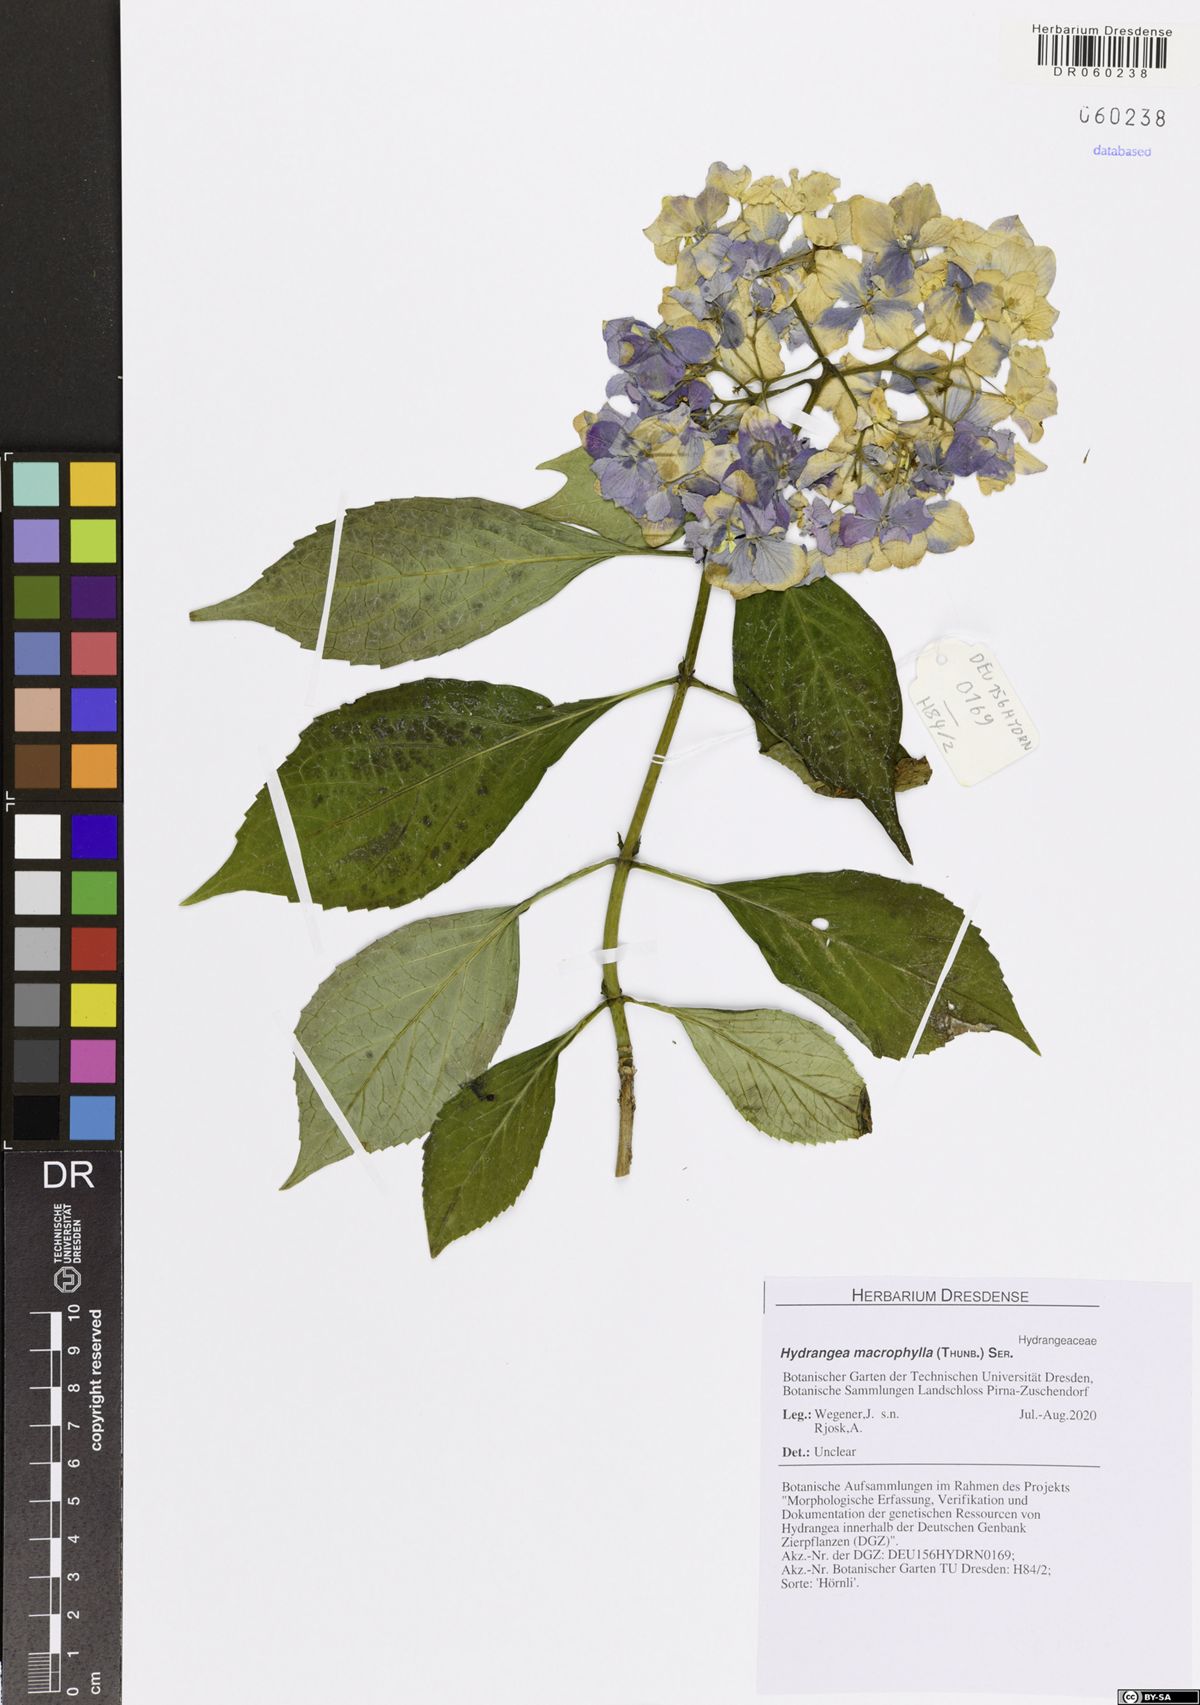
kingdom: Plantae
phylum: Tracheophyta
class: Magnoliopsida
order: Cornales
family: Hydrangeaceae
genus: Hydrangea
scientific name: Hydrangea macrophylla
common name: Hydrangea
